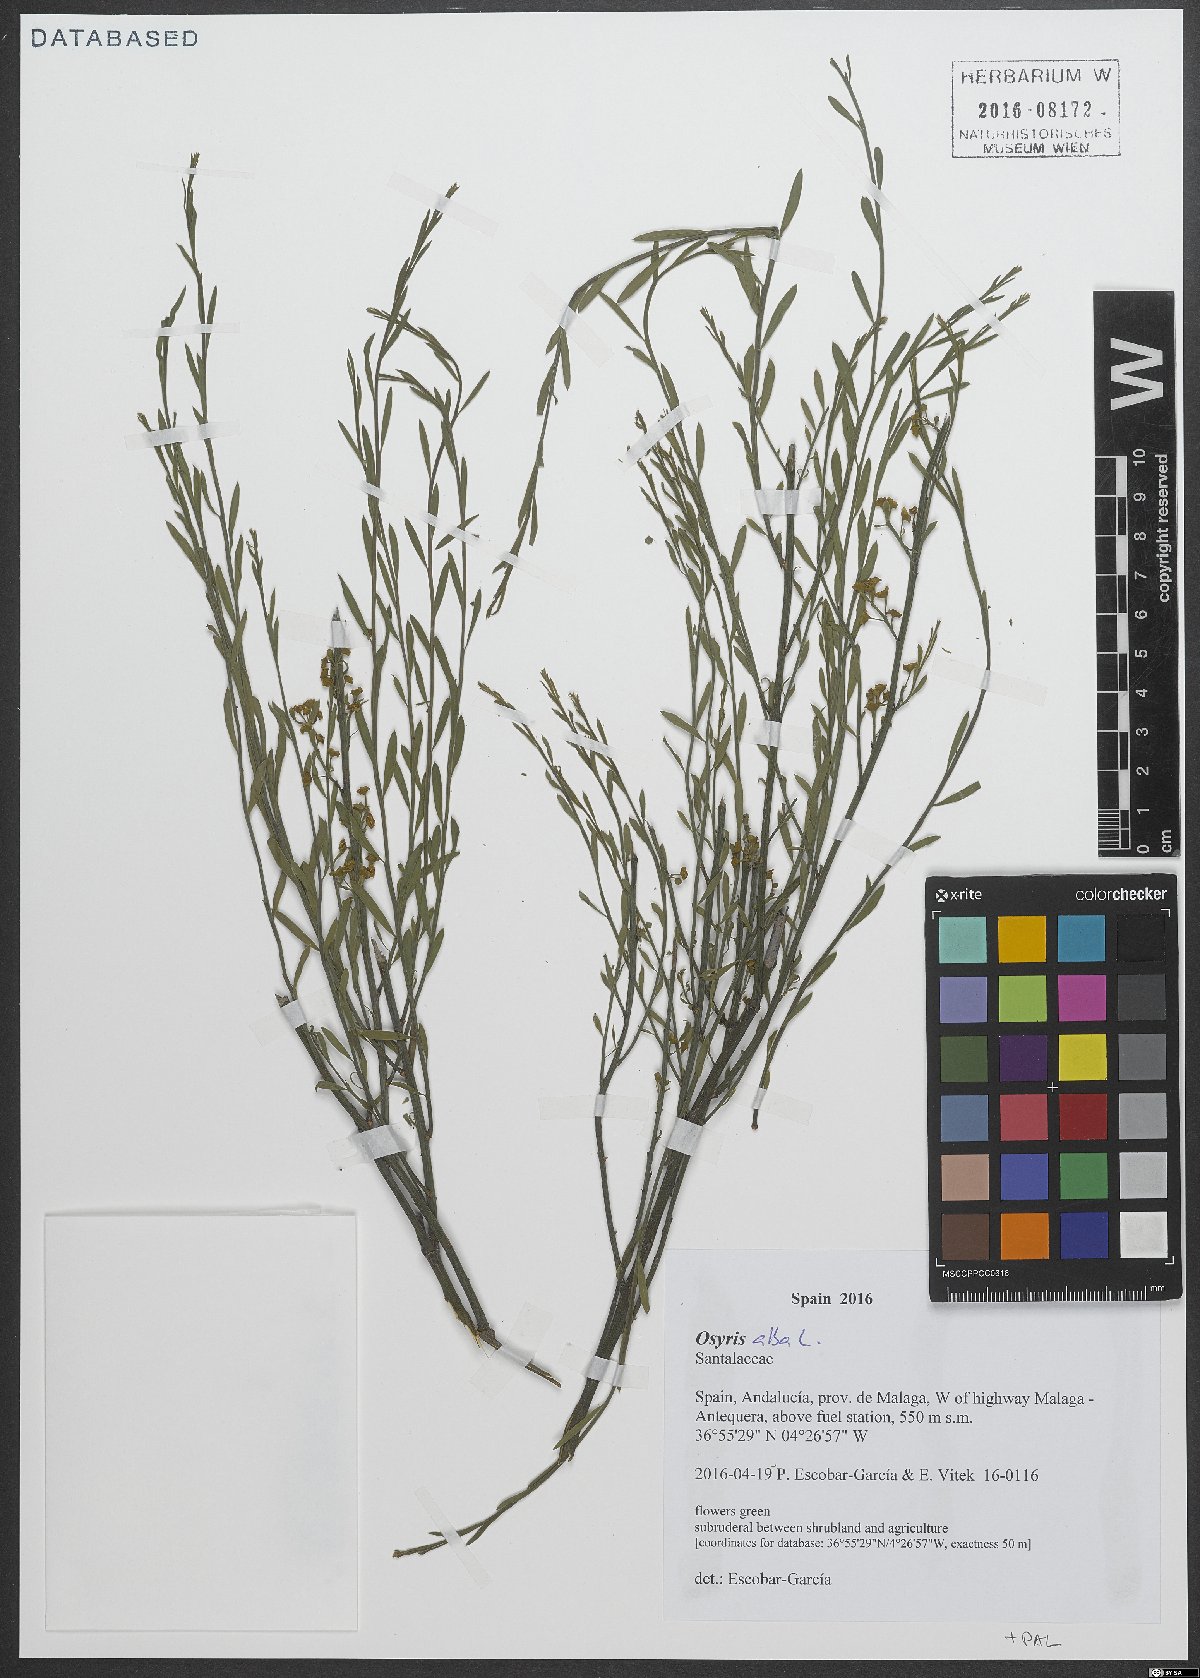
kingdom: Plantae
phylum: Tracheophyta
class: Magnoliopsida
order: Santalales
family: Santalaceae
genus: Osyris
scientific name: Osyris alba
